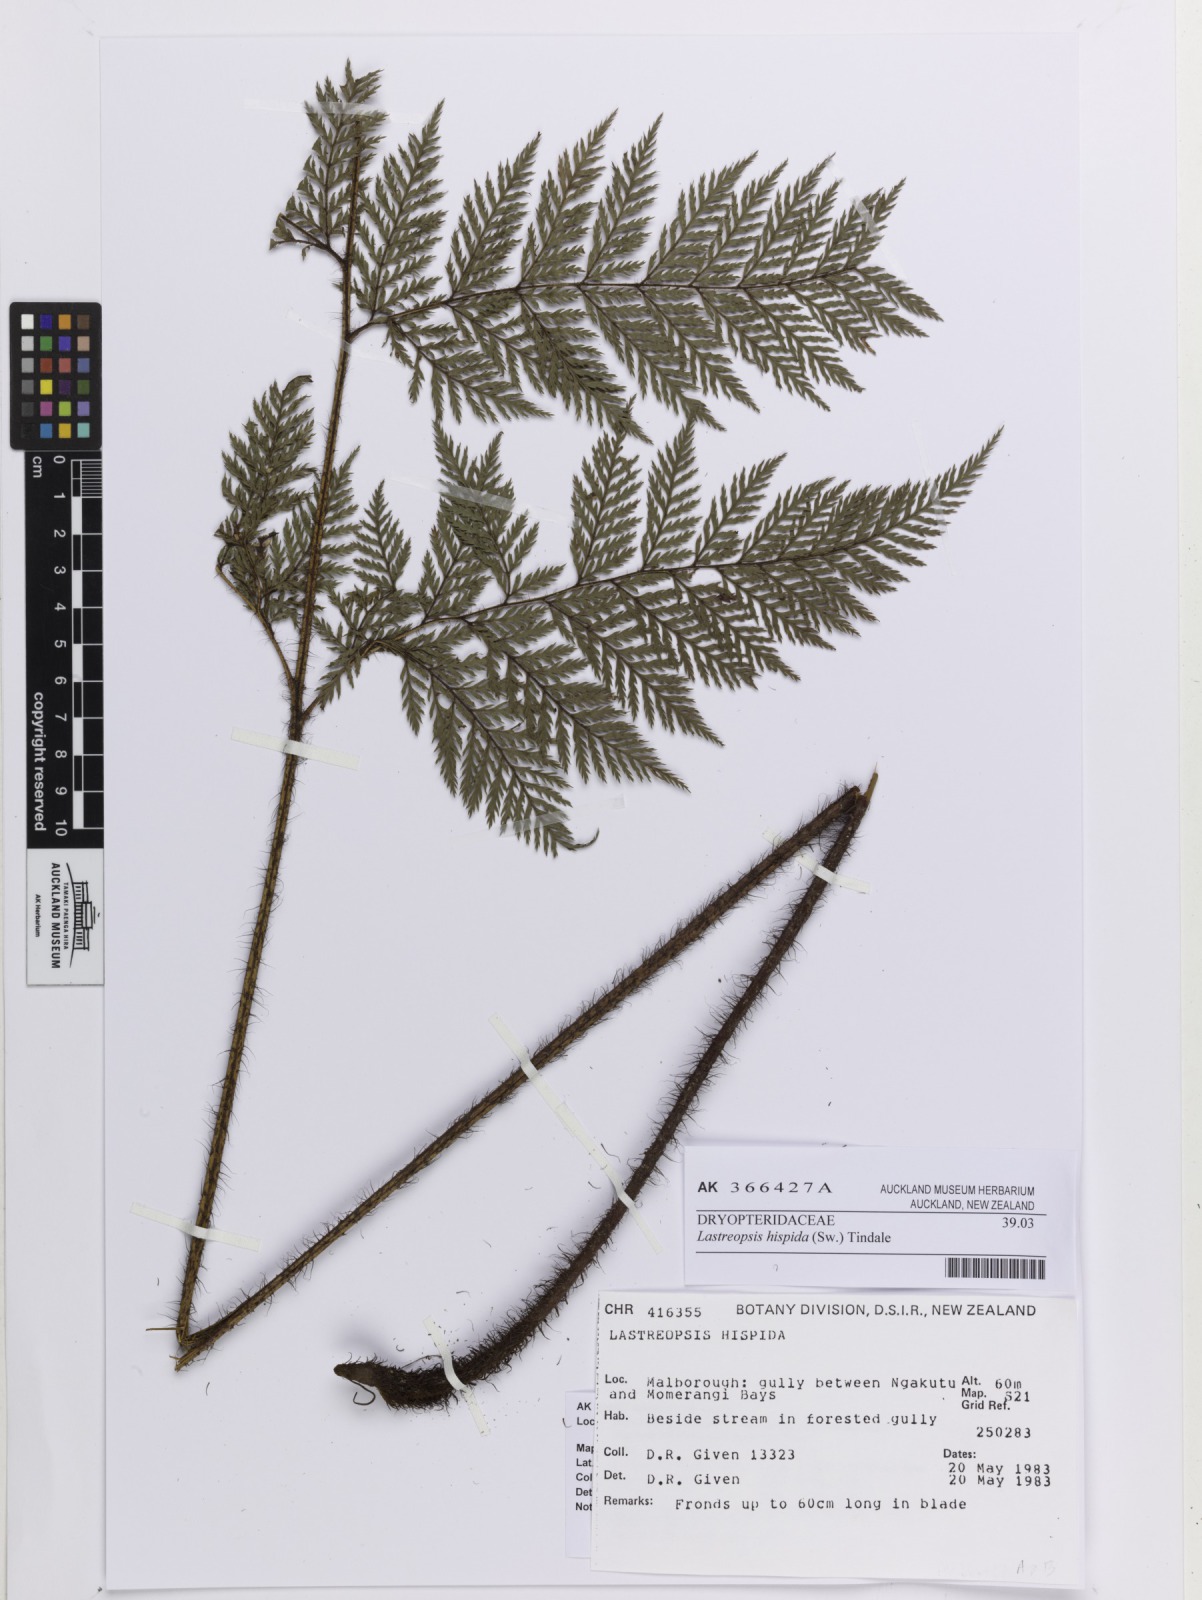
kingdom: Plantae
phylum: Tracheophyta
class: Polypodiopsida
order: Polypodiales
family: Dryopteridaceae
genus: Lastreopsis
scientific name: Lastreopsis hispida
